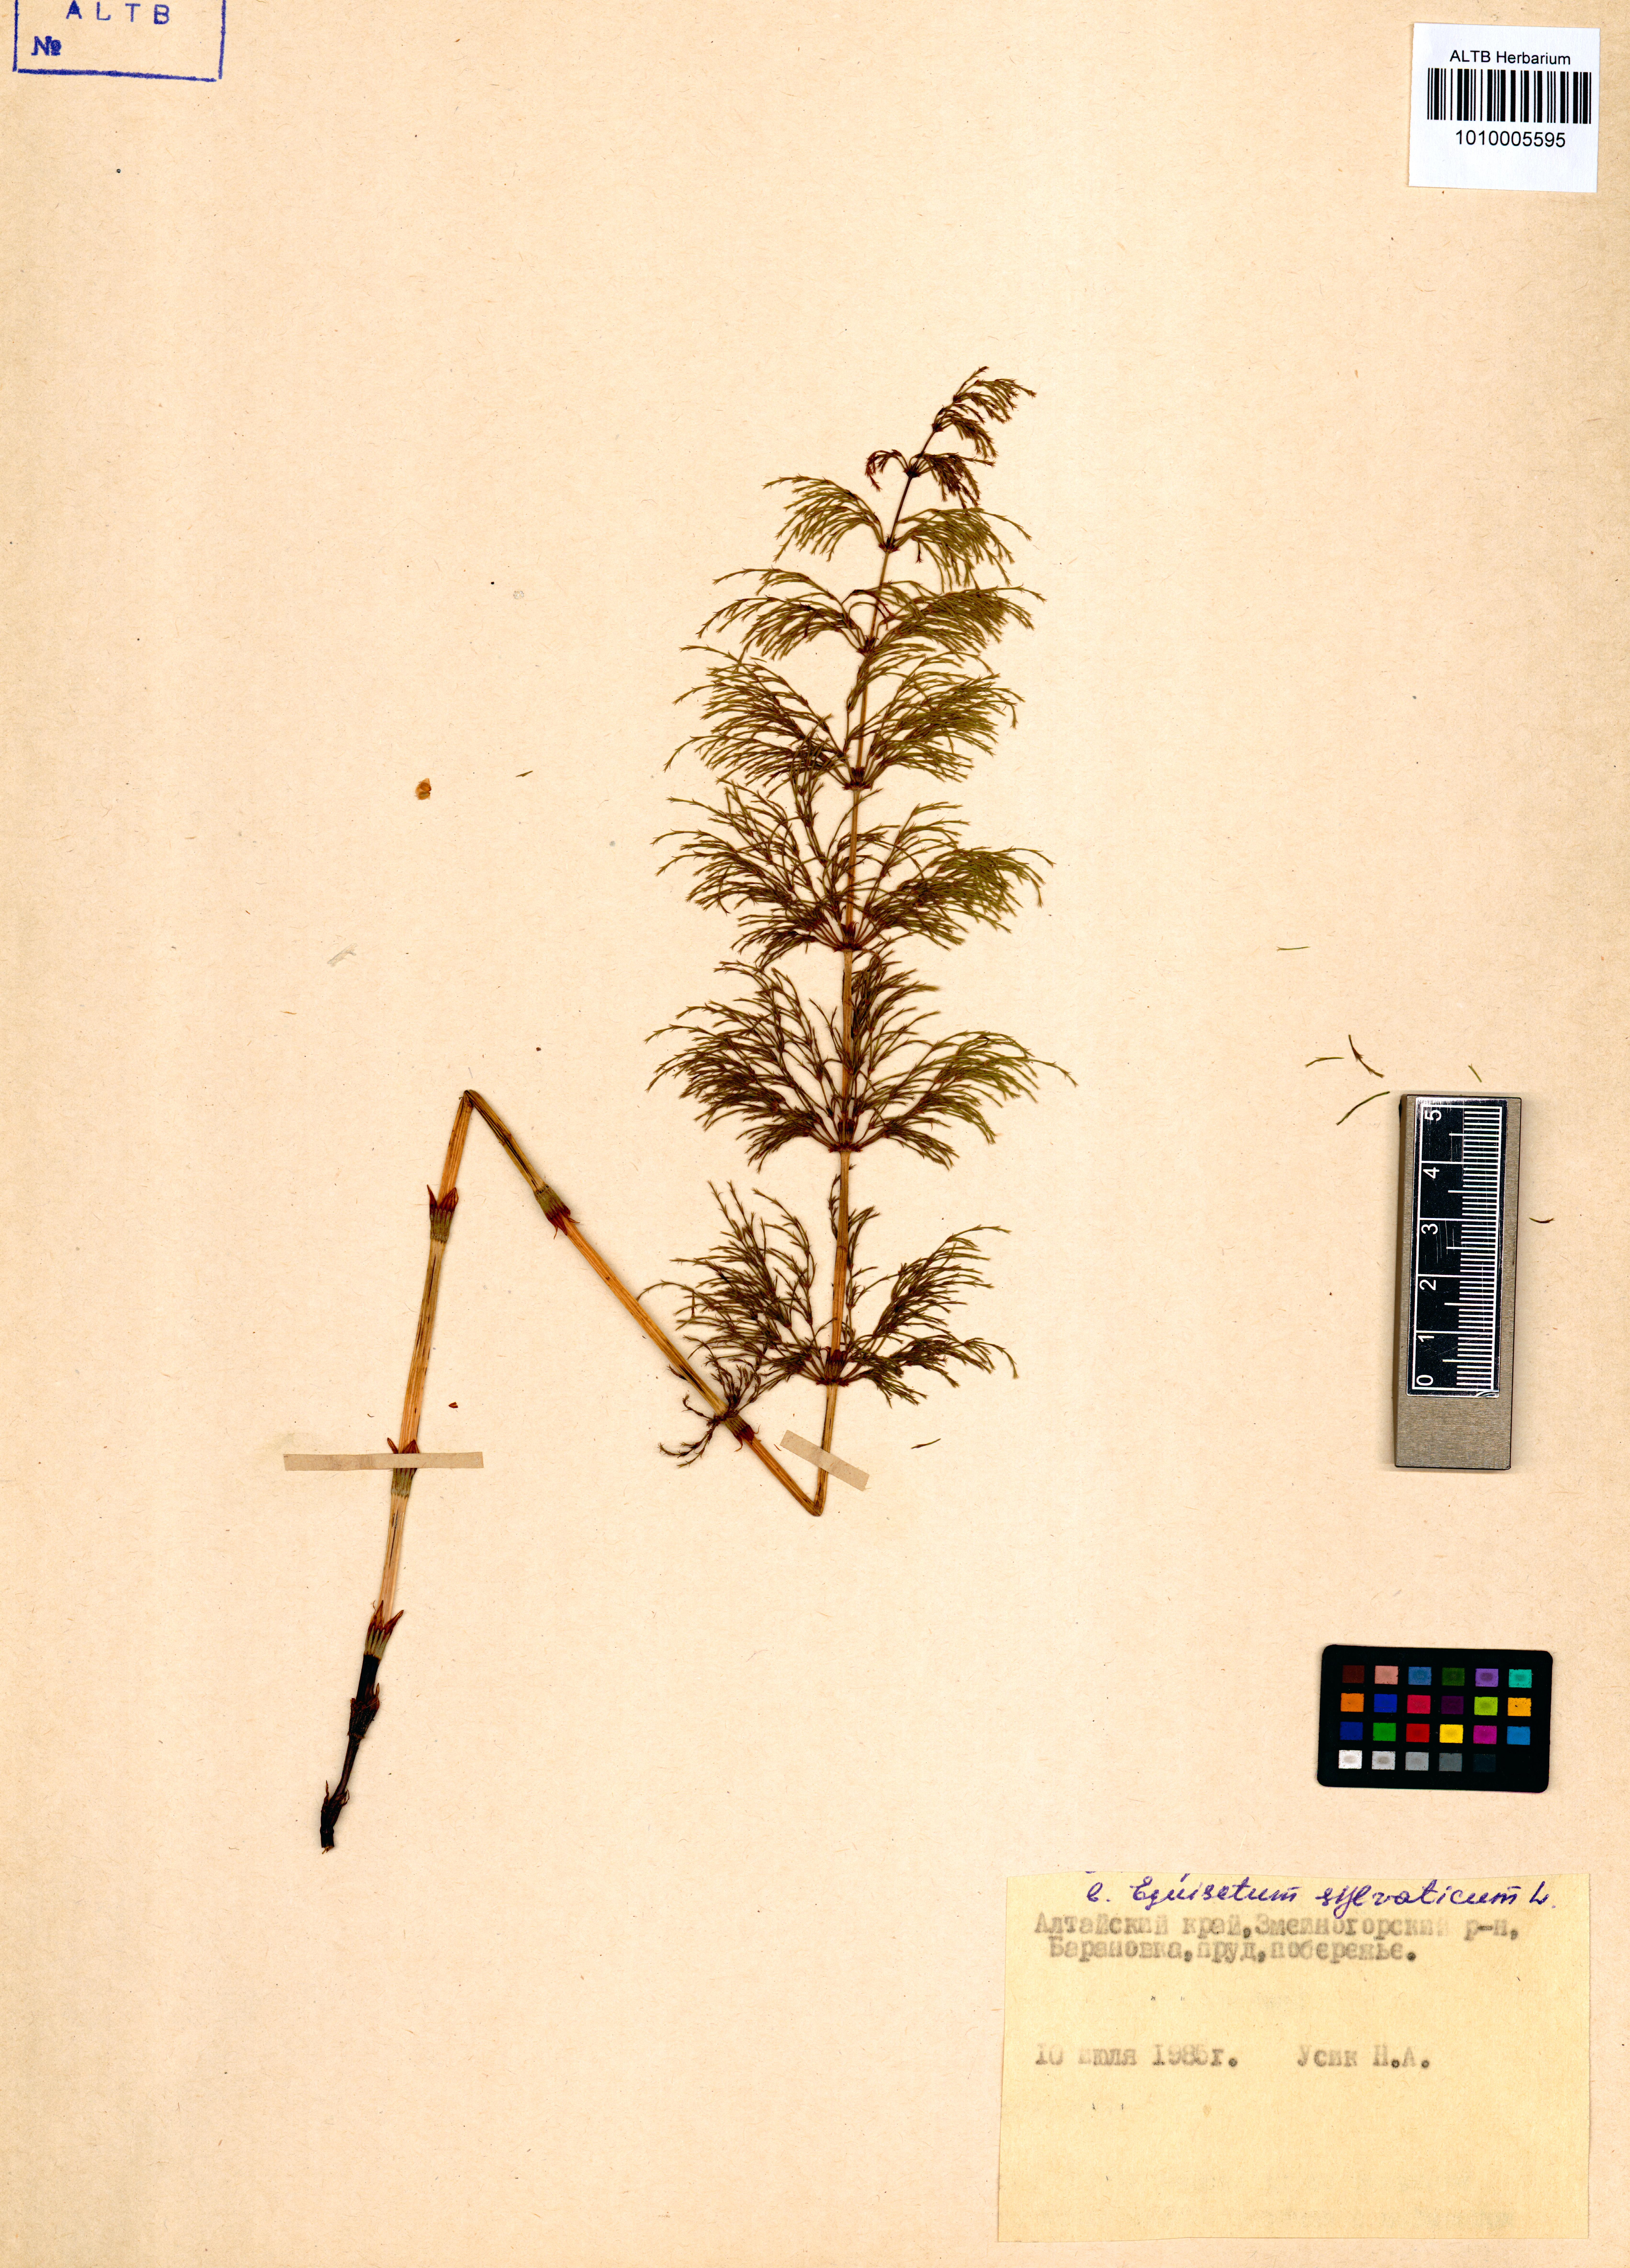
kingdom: Plantae
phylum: Tracheophyta
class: Polypodiopsida
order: Equisetales
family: Equisetaceae
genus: Equisetum
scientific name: Equisetum sylvaticum
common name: Wood horsetail
